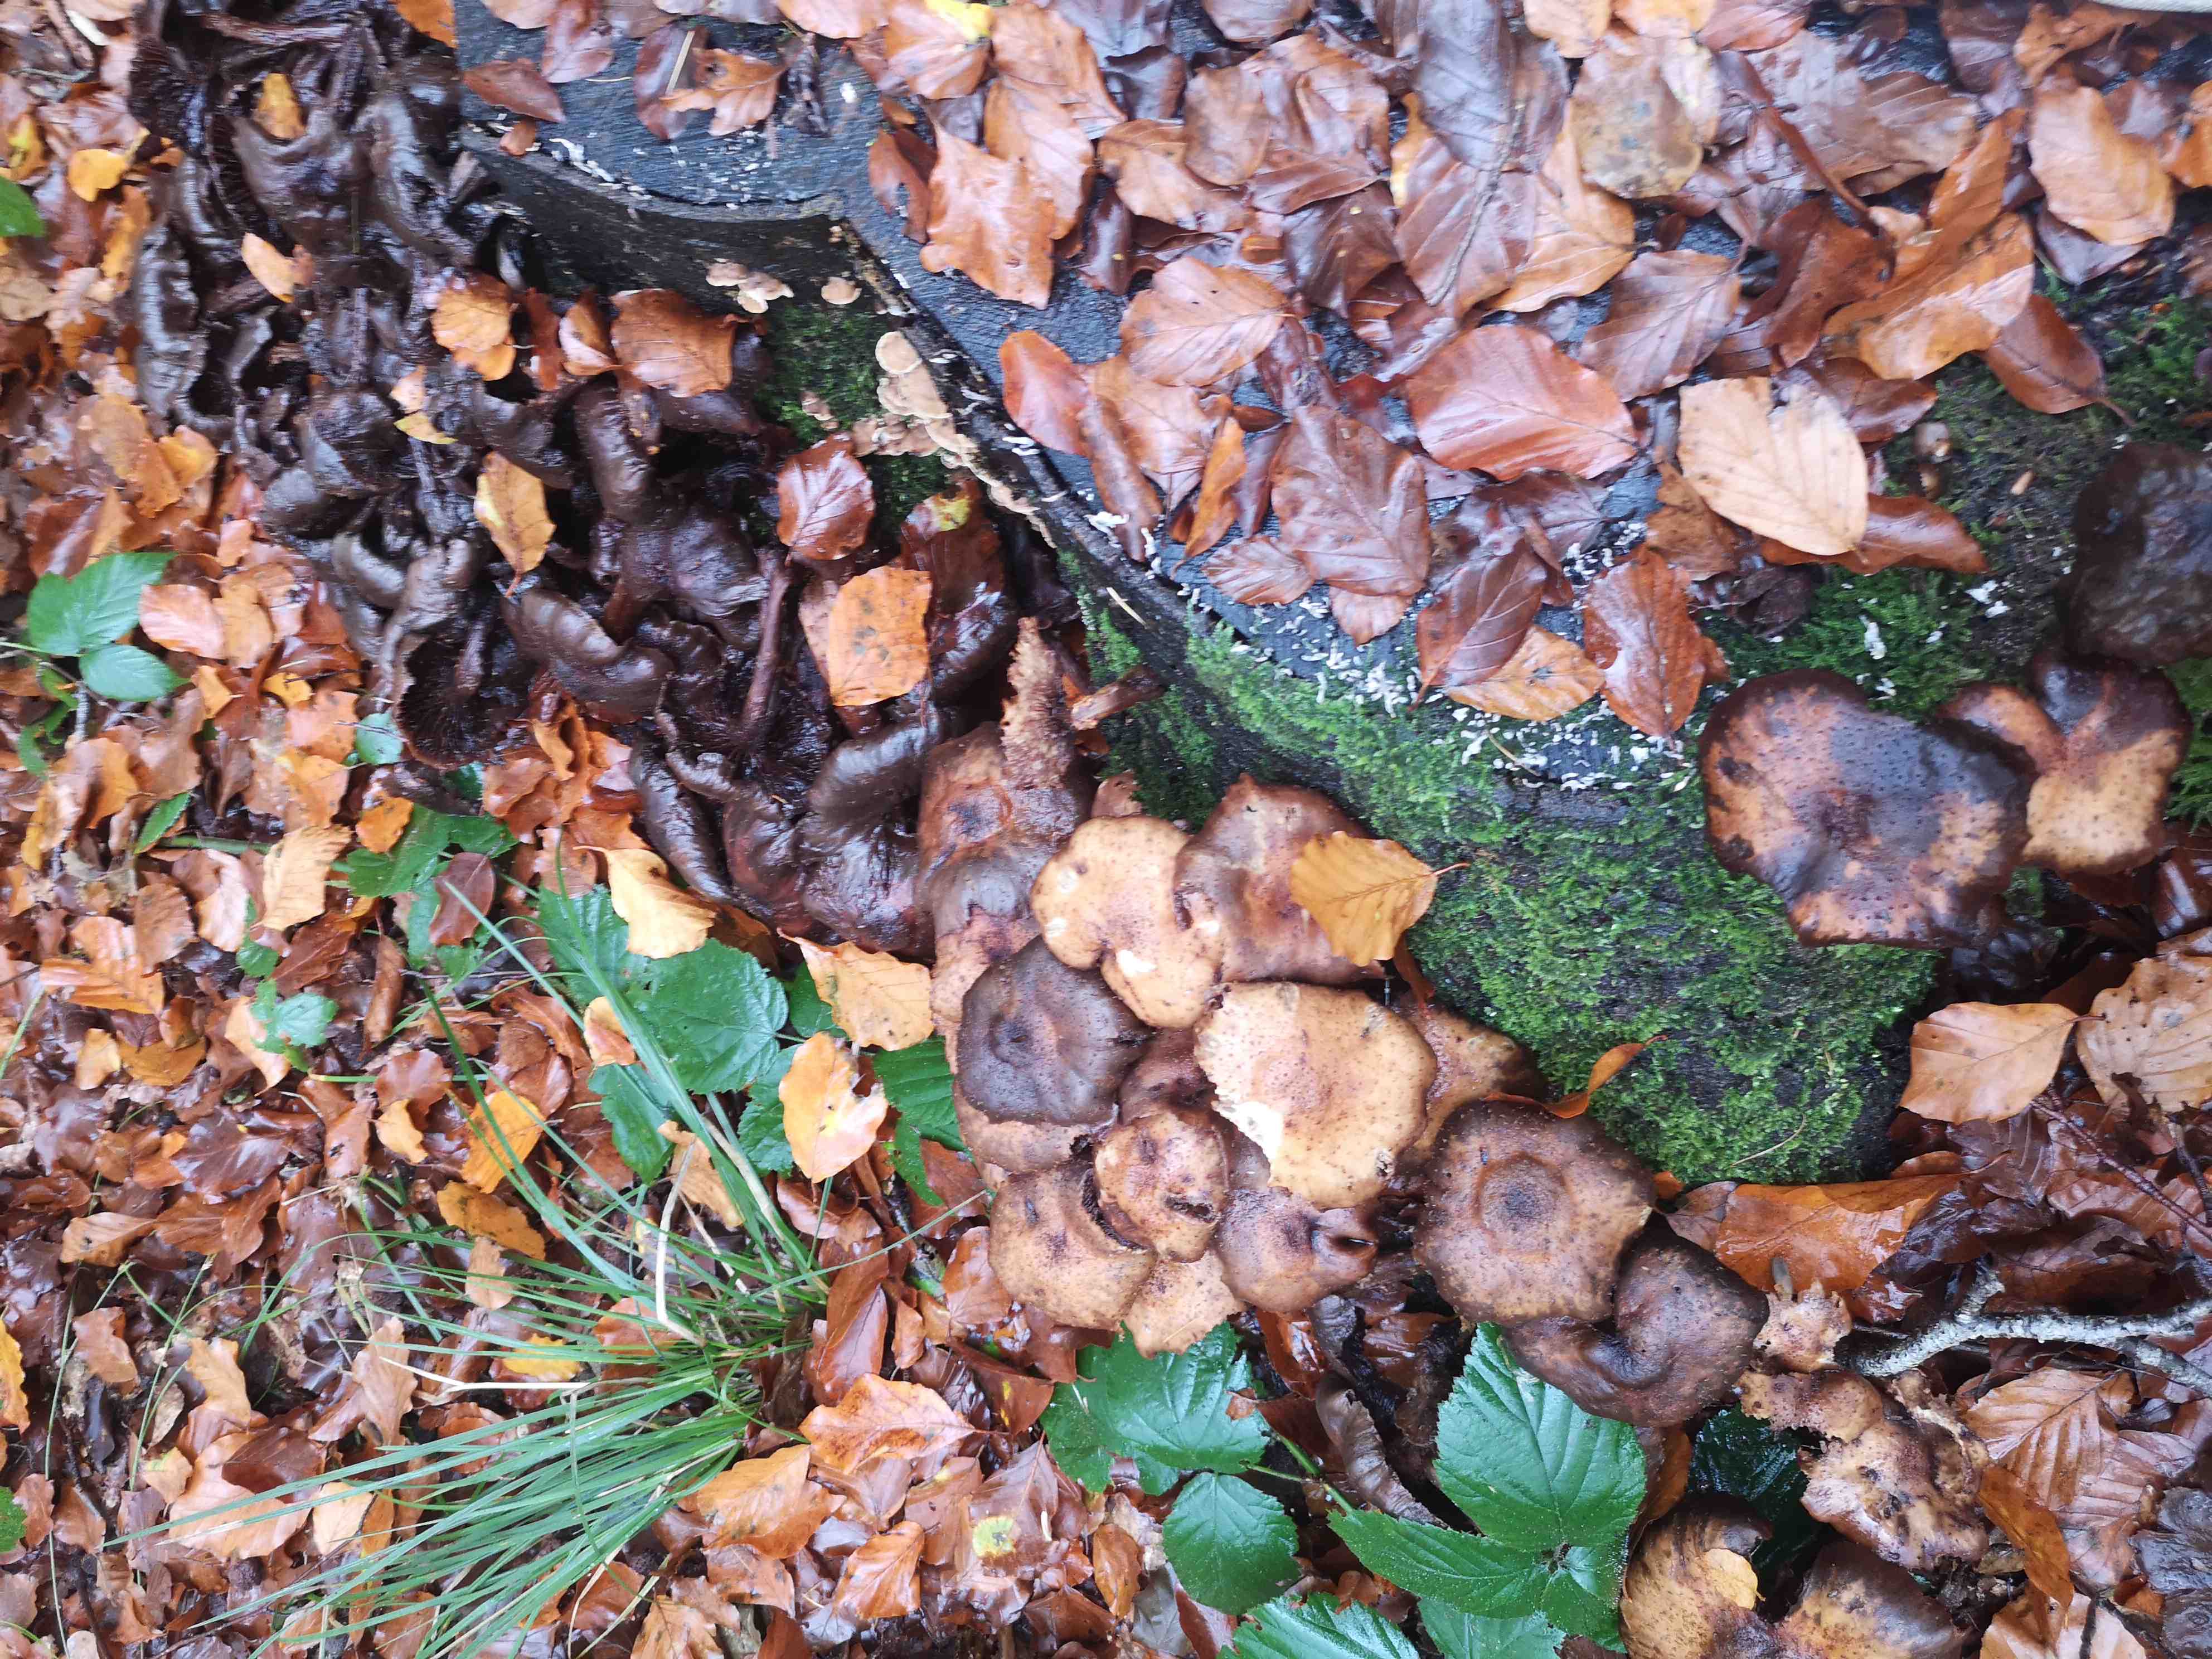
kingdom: Fungi
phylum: Basidiomycota
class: Agaricomycetes
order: Agaricales
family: Physalacriaceae
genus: Armillaria
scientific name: Armillaria
